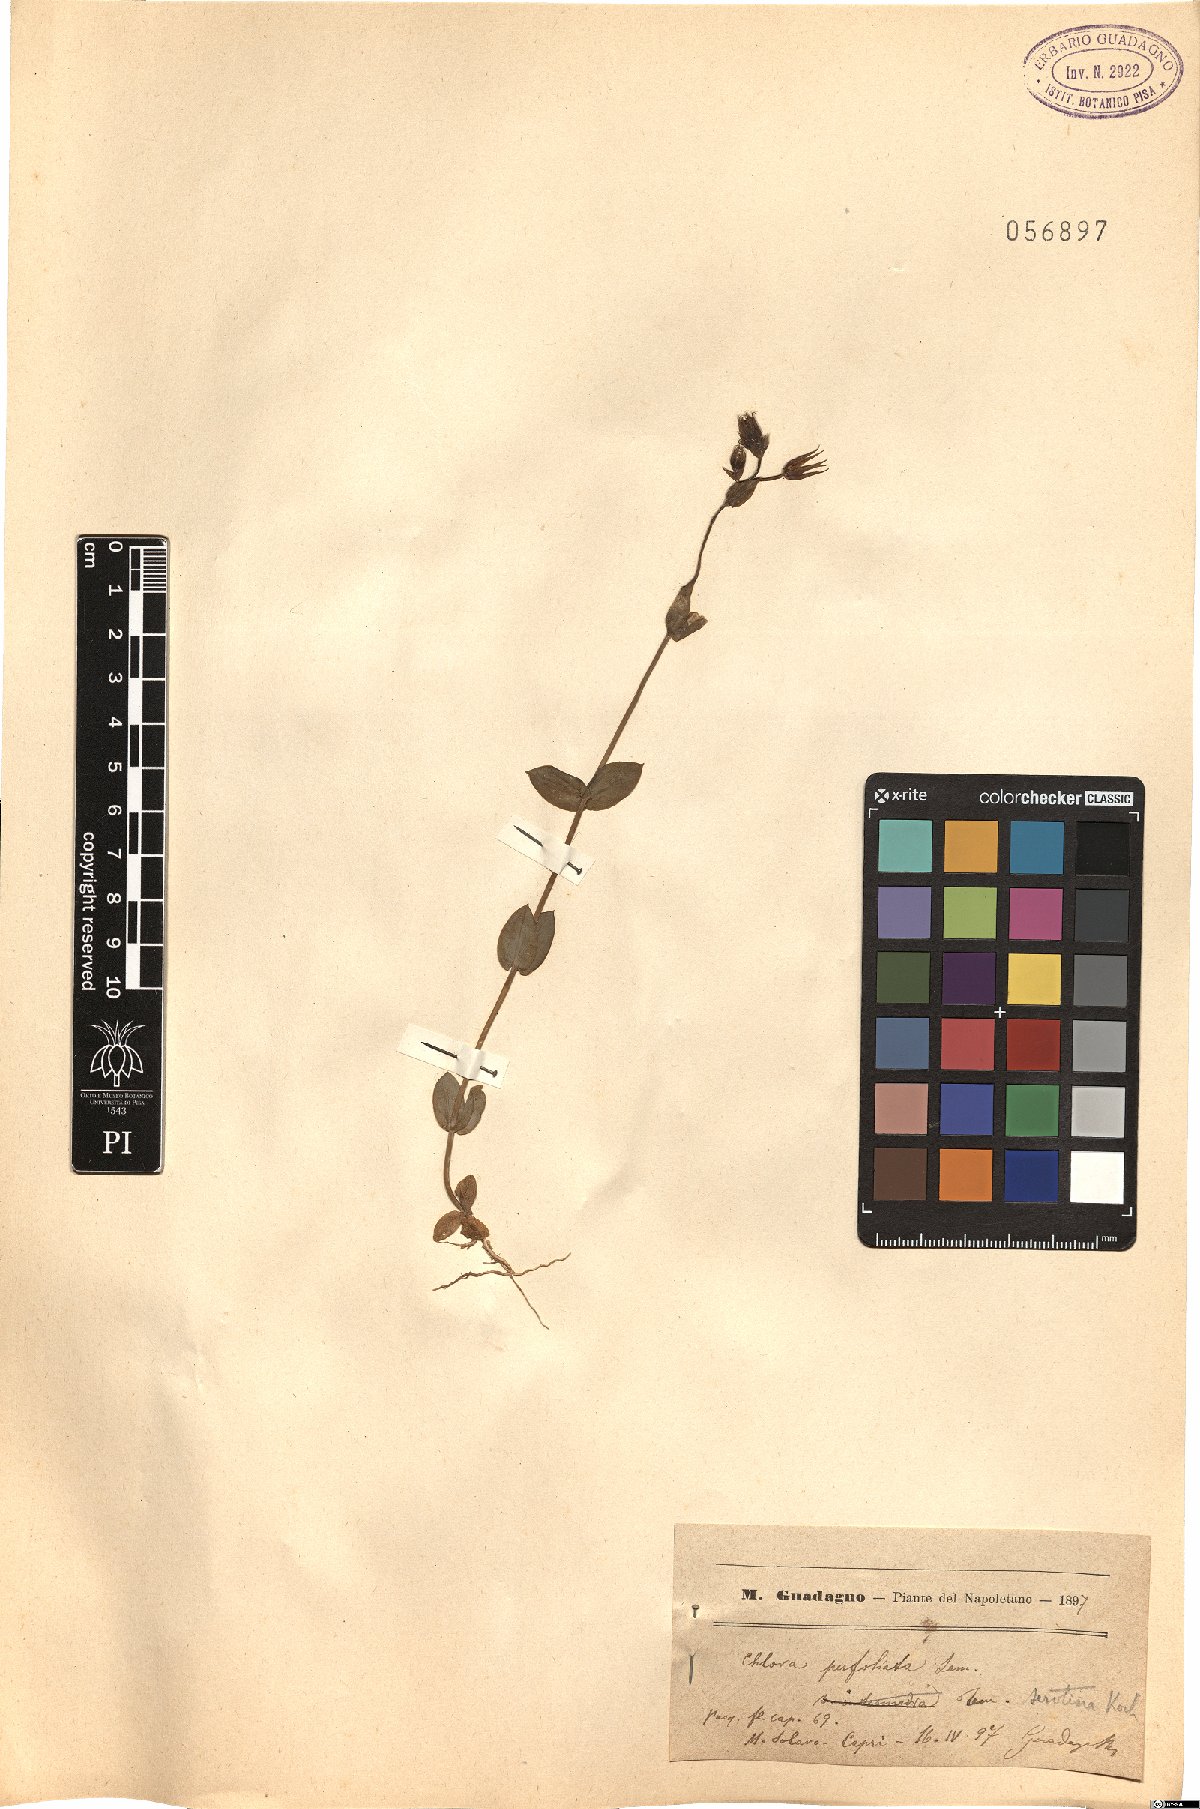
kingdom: Plantae
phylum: Tracheophyta
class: Magnoliopsida
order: Gentianales
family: Gentianaceae
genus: Blackstonia
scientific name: Blackstonia perfoliata
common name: Yellow-wort
